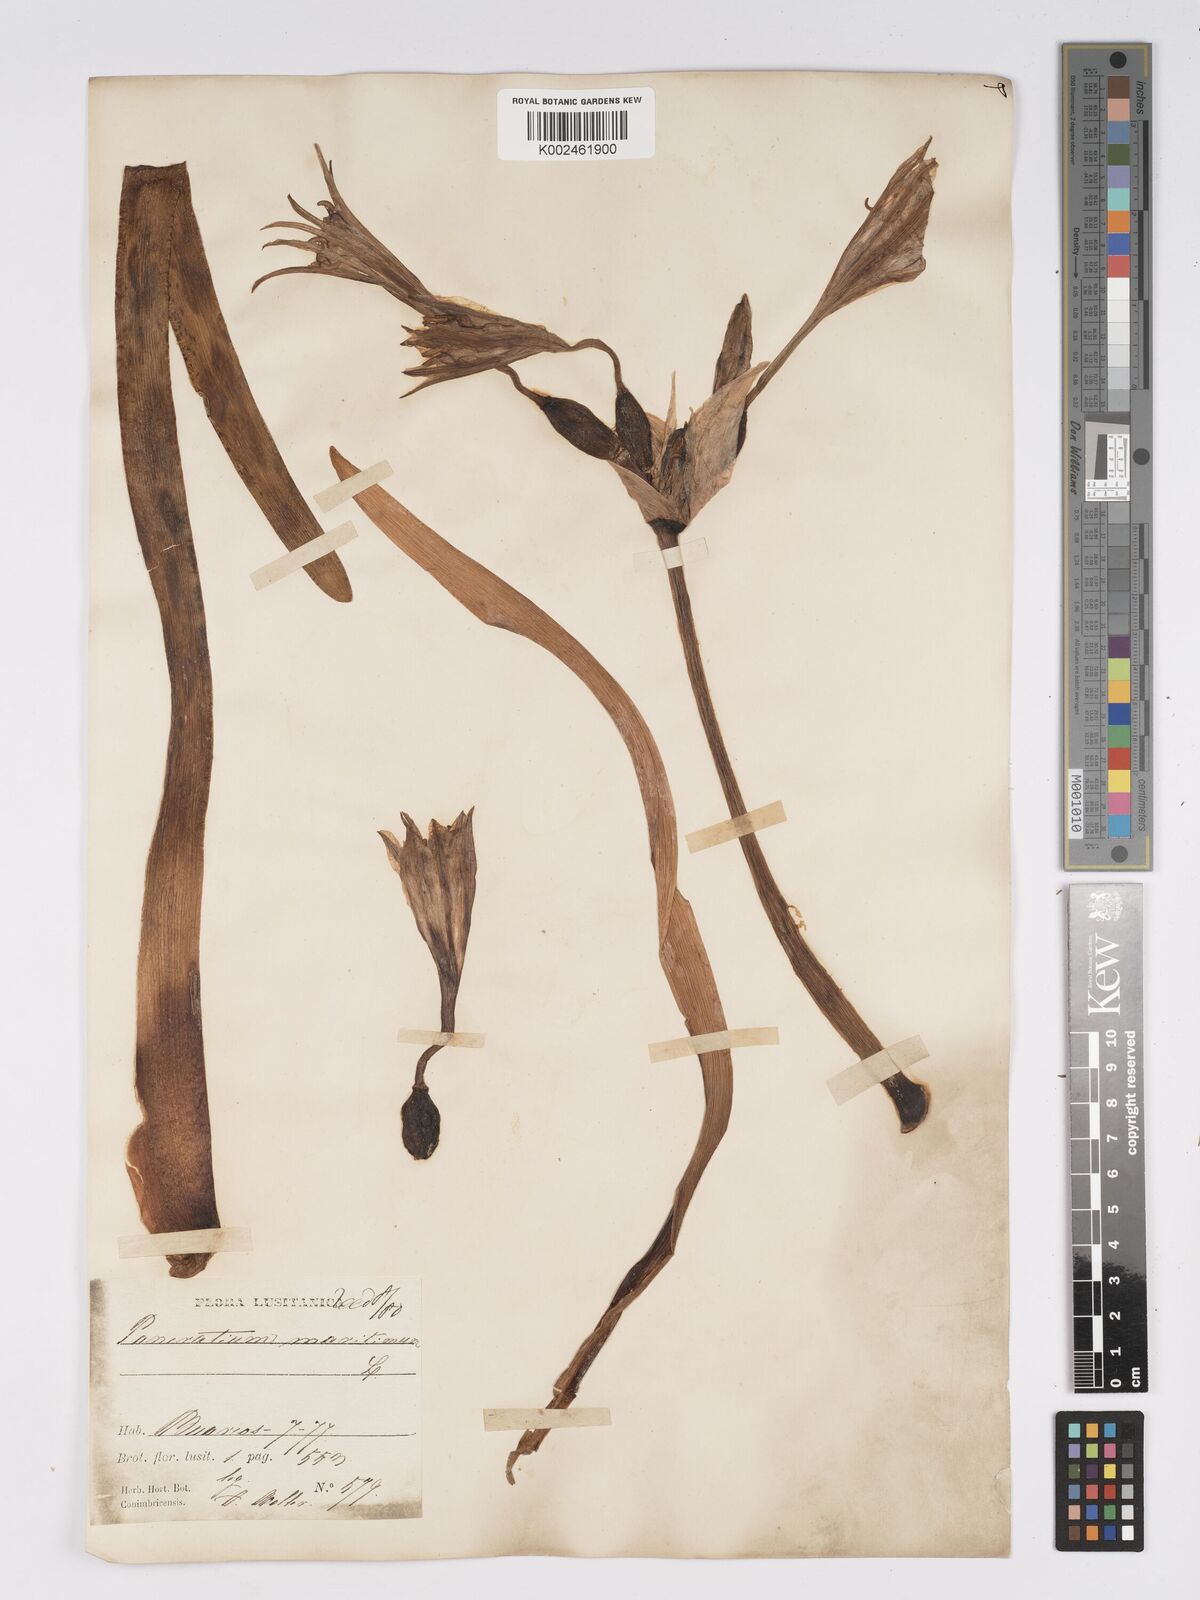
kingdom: Plantae
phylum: Tracheophyta
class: Liliopsida
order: Asparagales
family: Amaryllidaceae
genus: Pancratium
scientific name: Pancratium maritimum
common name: Sea-daffodil
